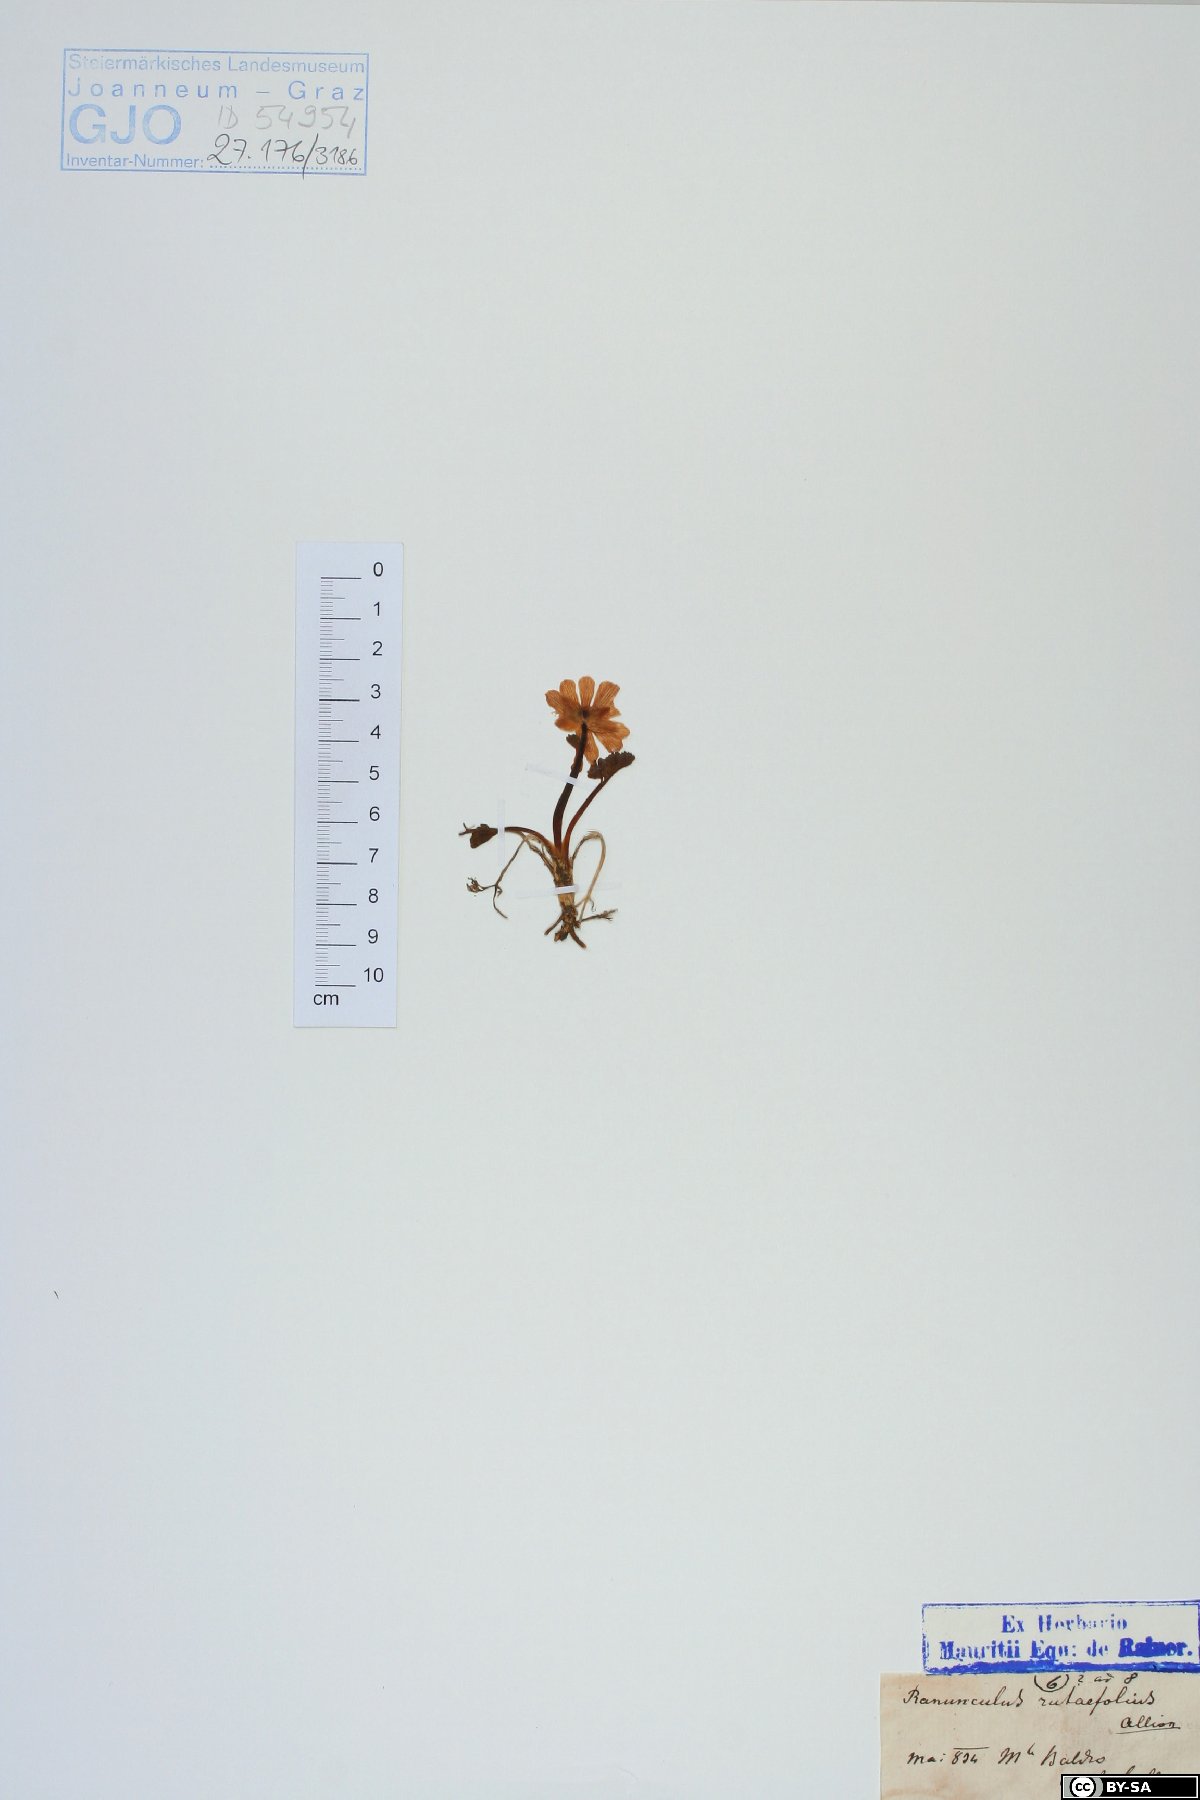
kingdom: Plantae
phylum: Tracheophyta
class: Magnoliopsida
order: Ranunculales
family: Ranunculaceae
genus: Callianthemum
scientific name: Callianthemum anemonoides
